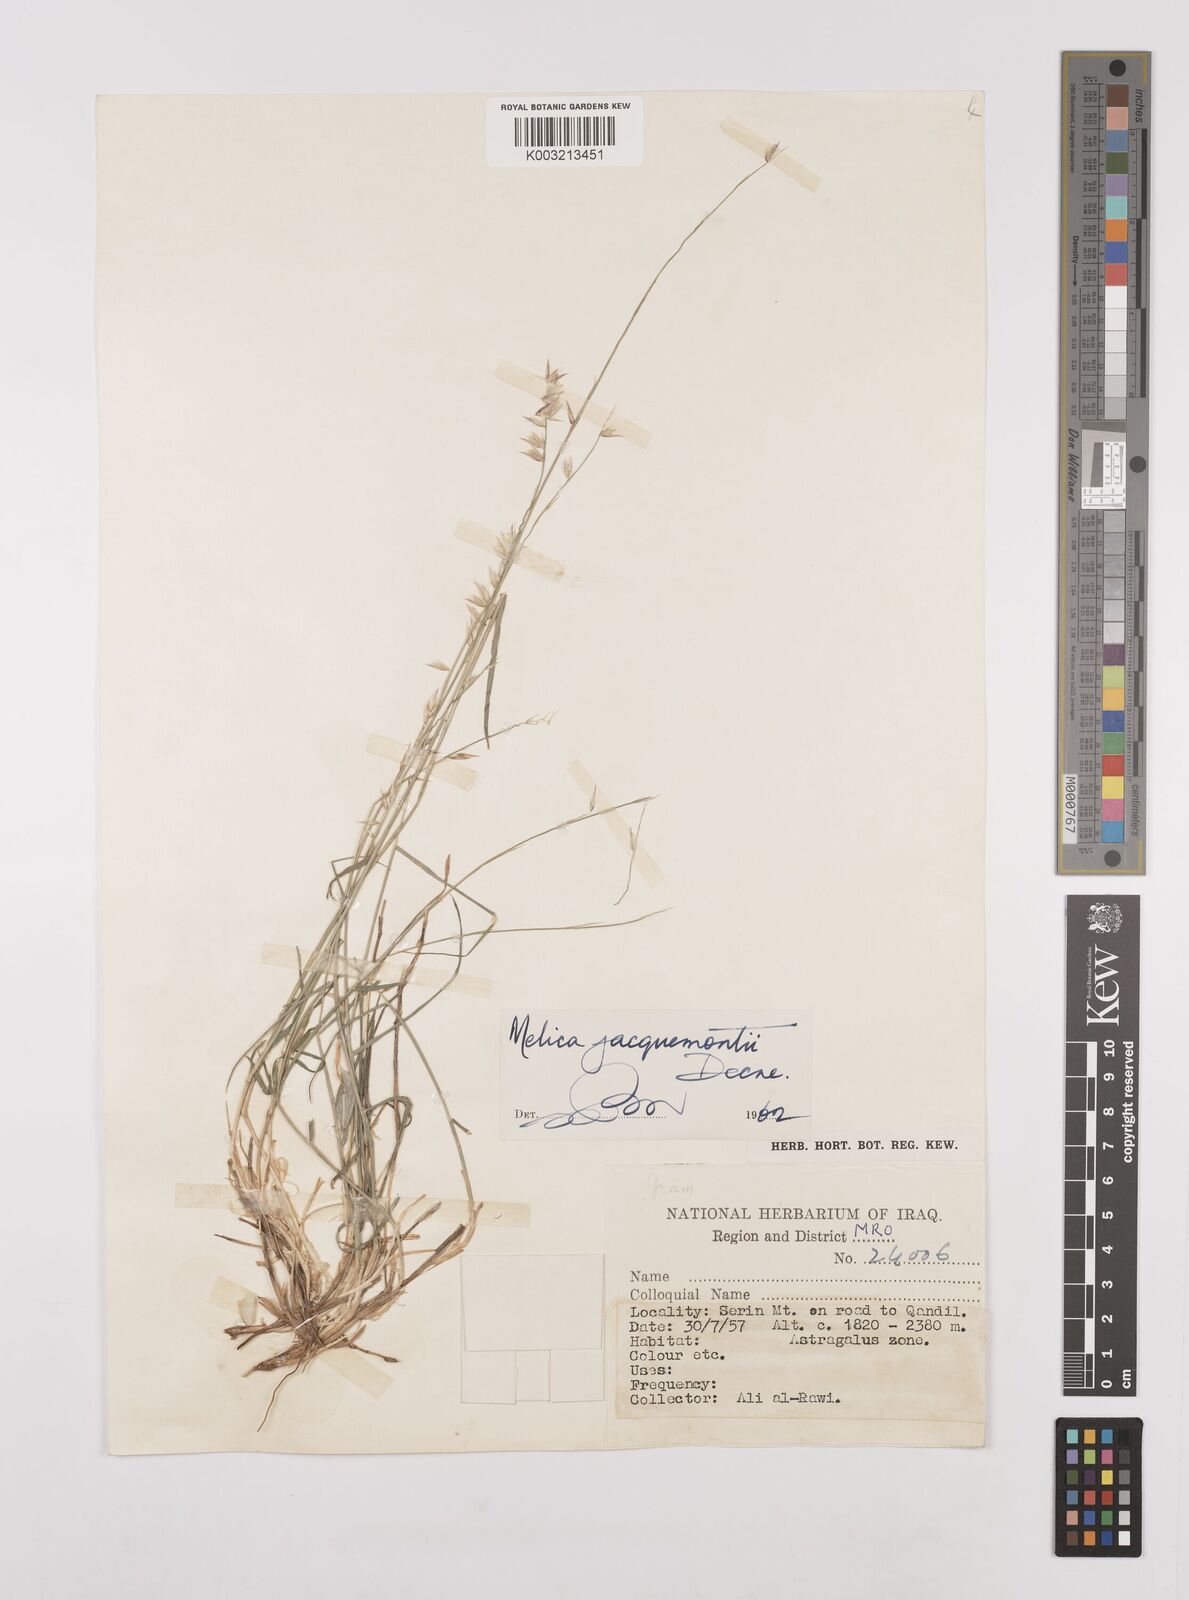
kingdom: Plantae
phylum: Tracheophyta
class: Liliopsida
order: Poales
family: Poaceae
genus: Melica
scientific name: Melica persica
